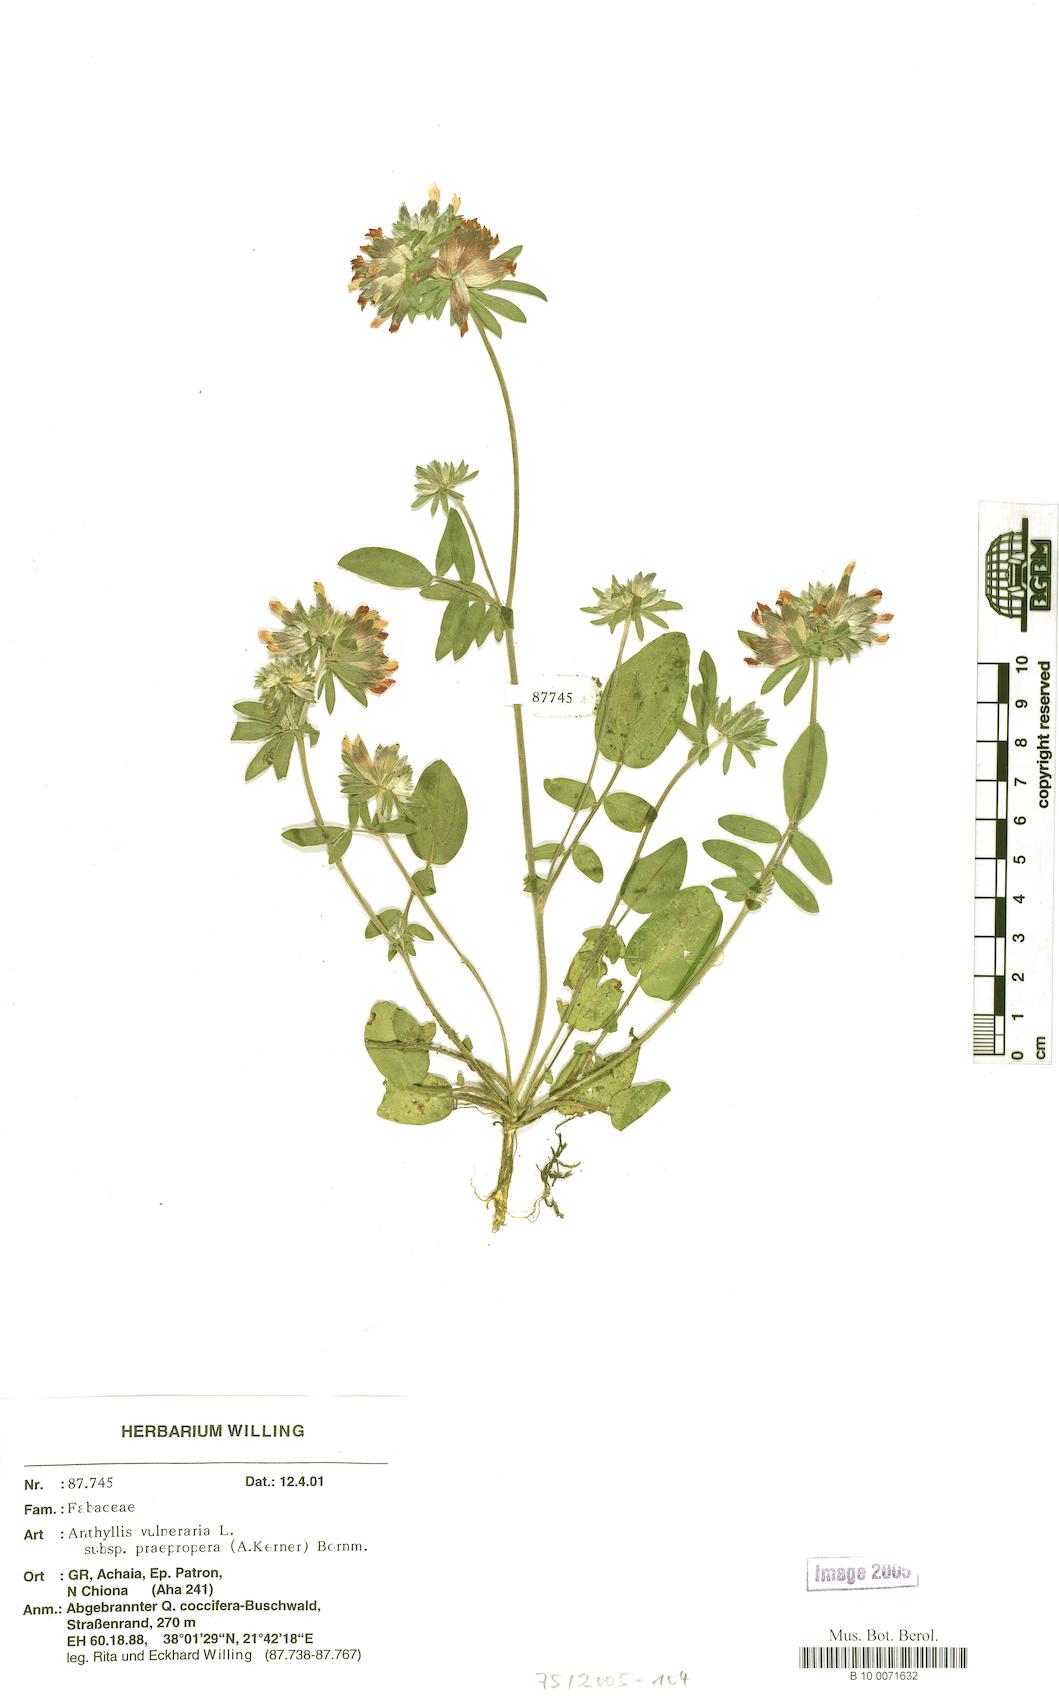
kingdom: Plantae
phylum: Tracheophyta
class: Magnoliopsida
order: Fabales
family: Fabaceae
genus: Anthyllis
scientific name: Anthyllis vulneraria
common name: Kidney vetch
